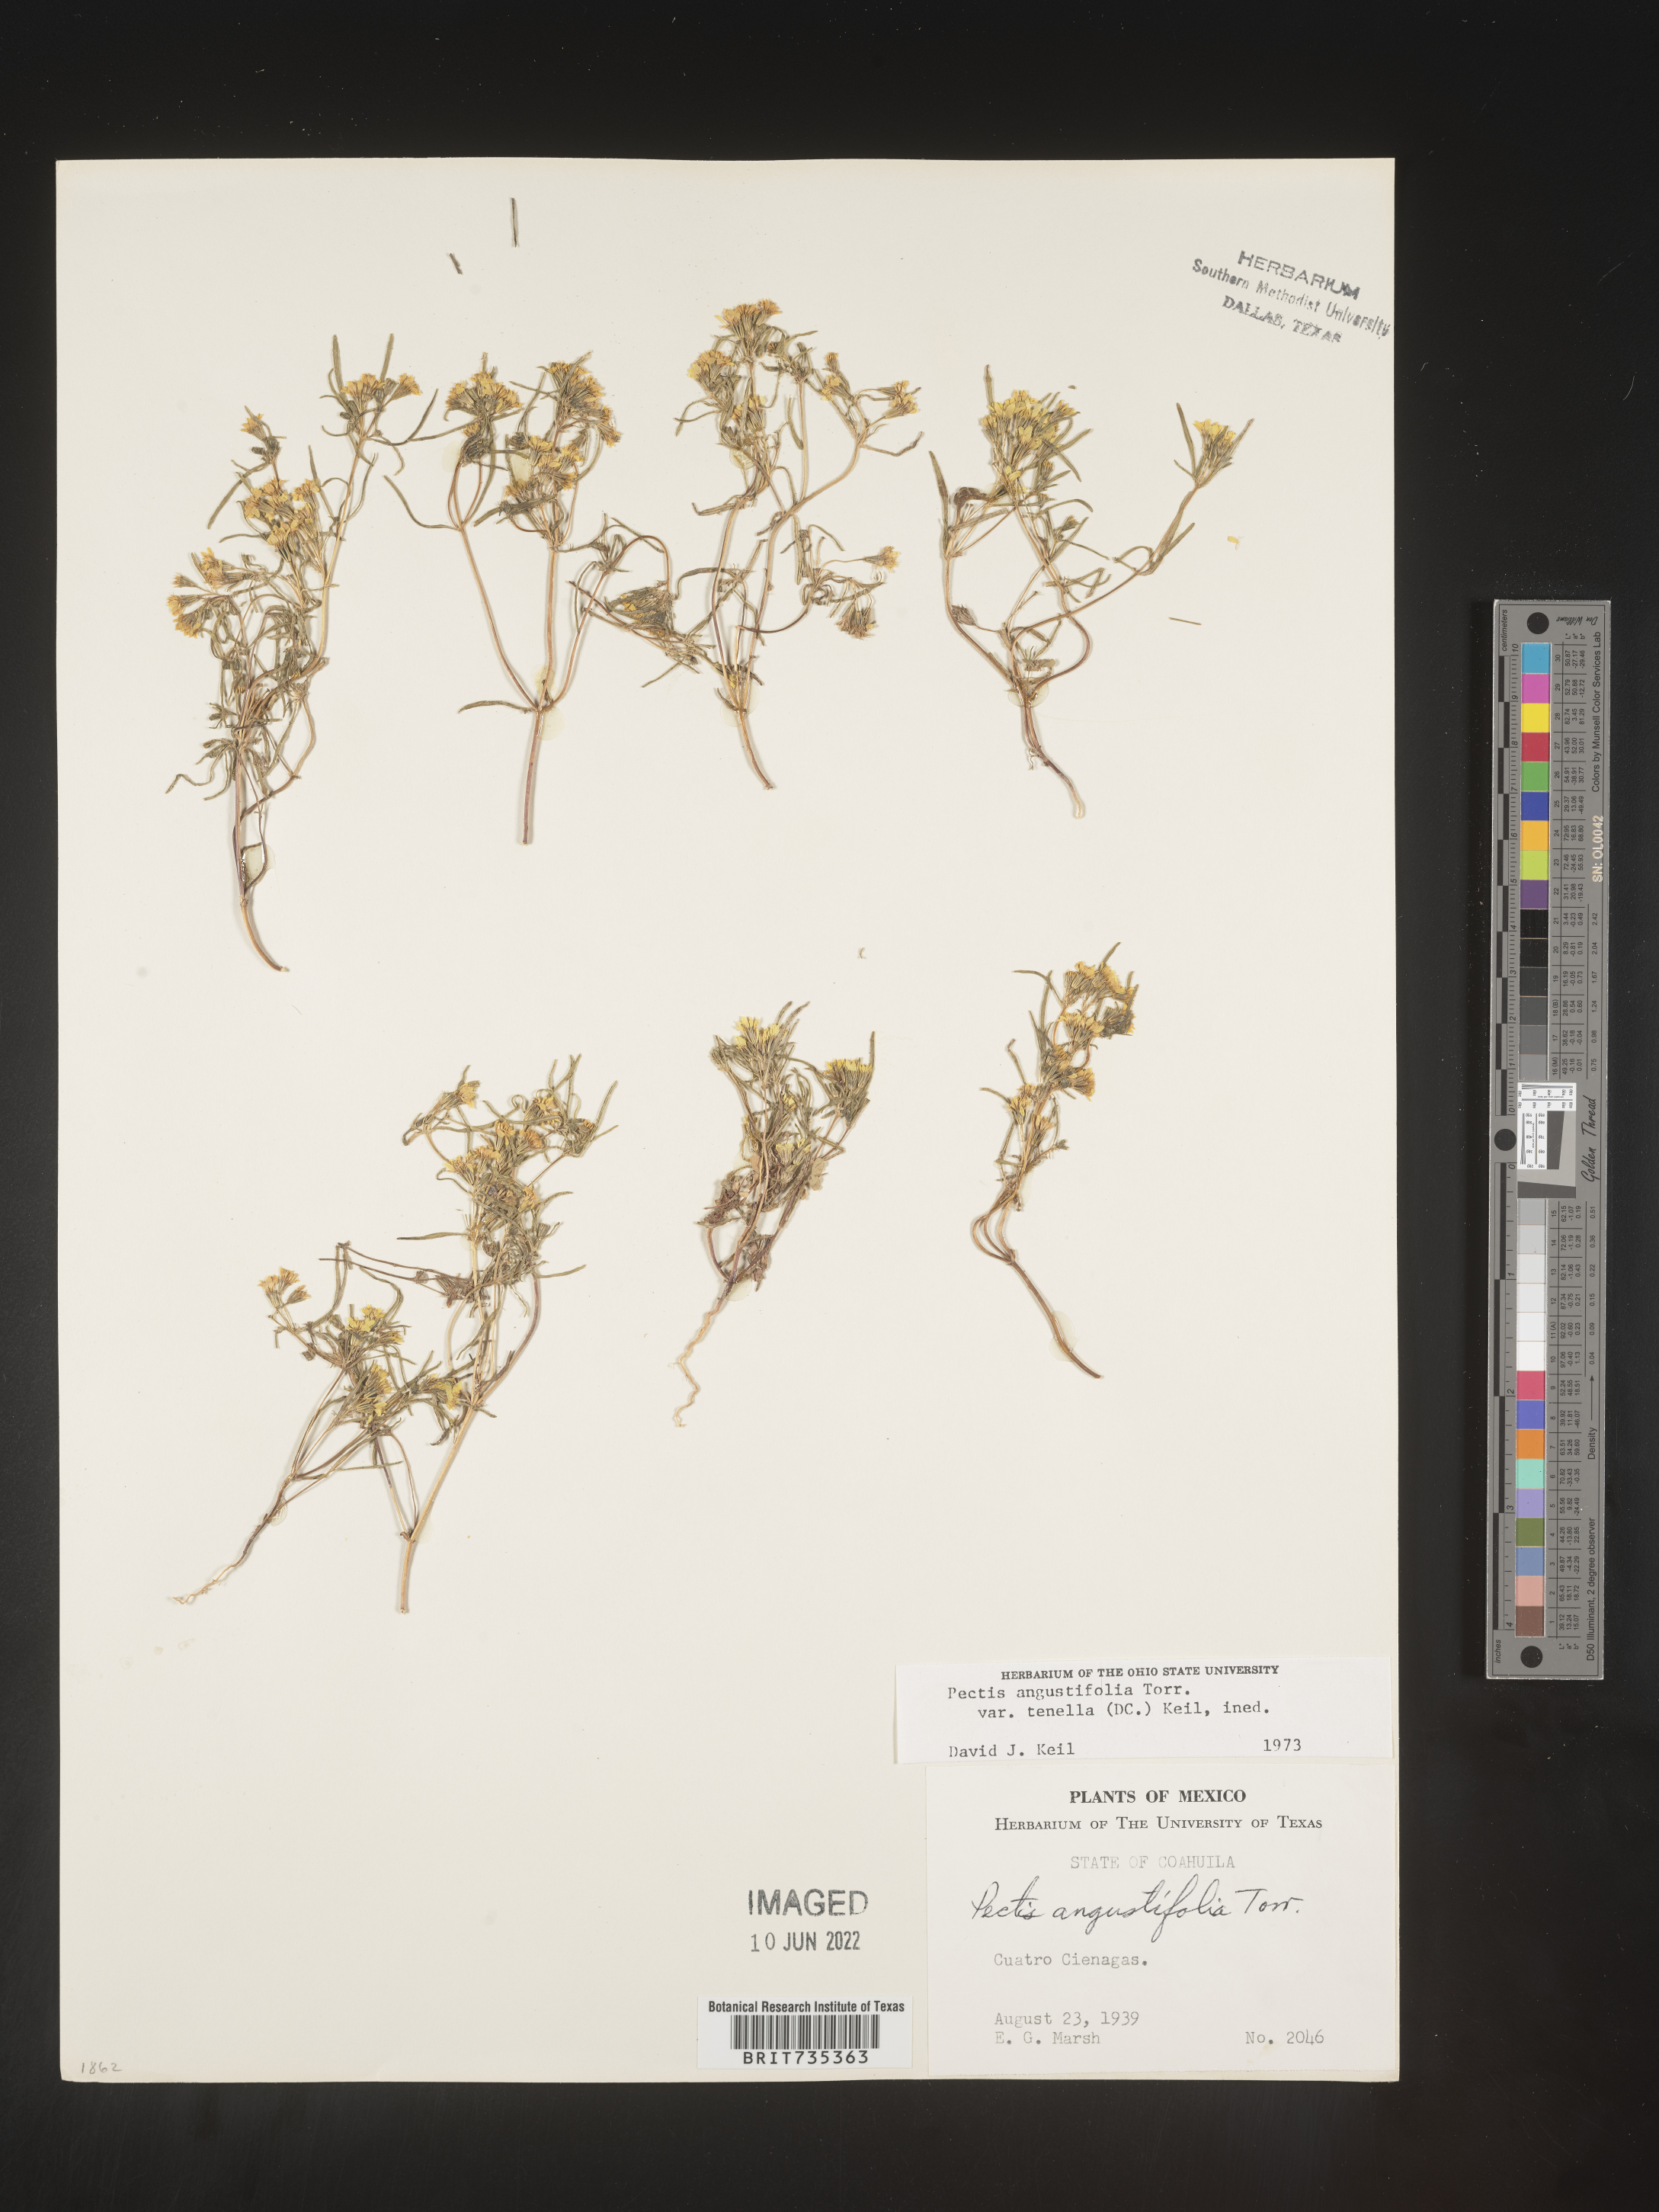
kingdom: Plantae
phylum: Tracheophyta
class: Magnoliopsida
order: Asterales
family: Asteraceae
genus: Pectis
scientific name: Pectis
